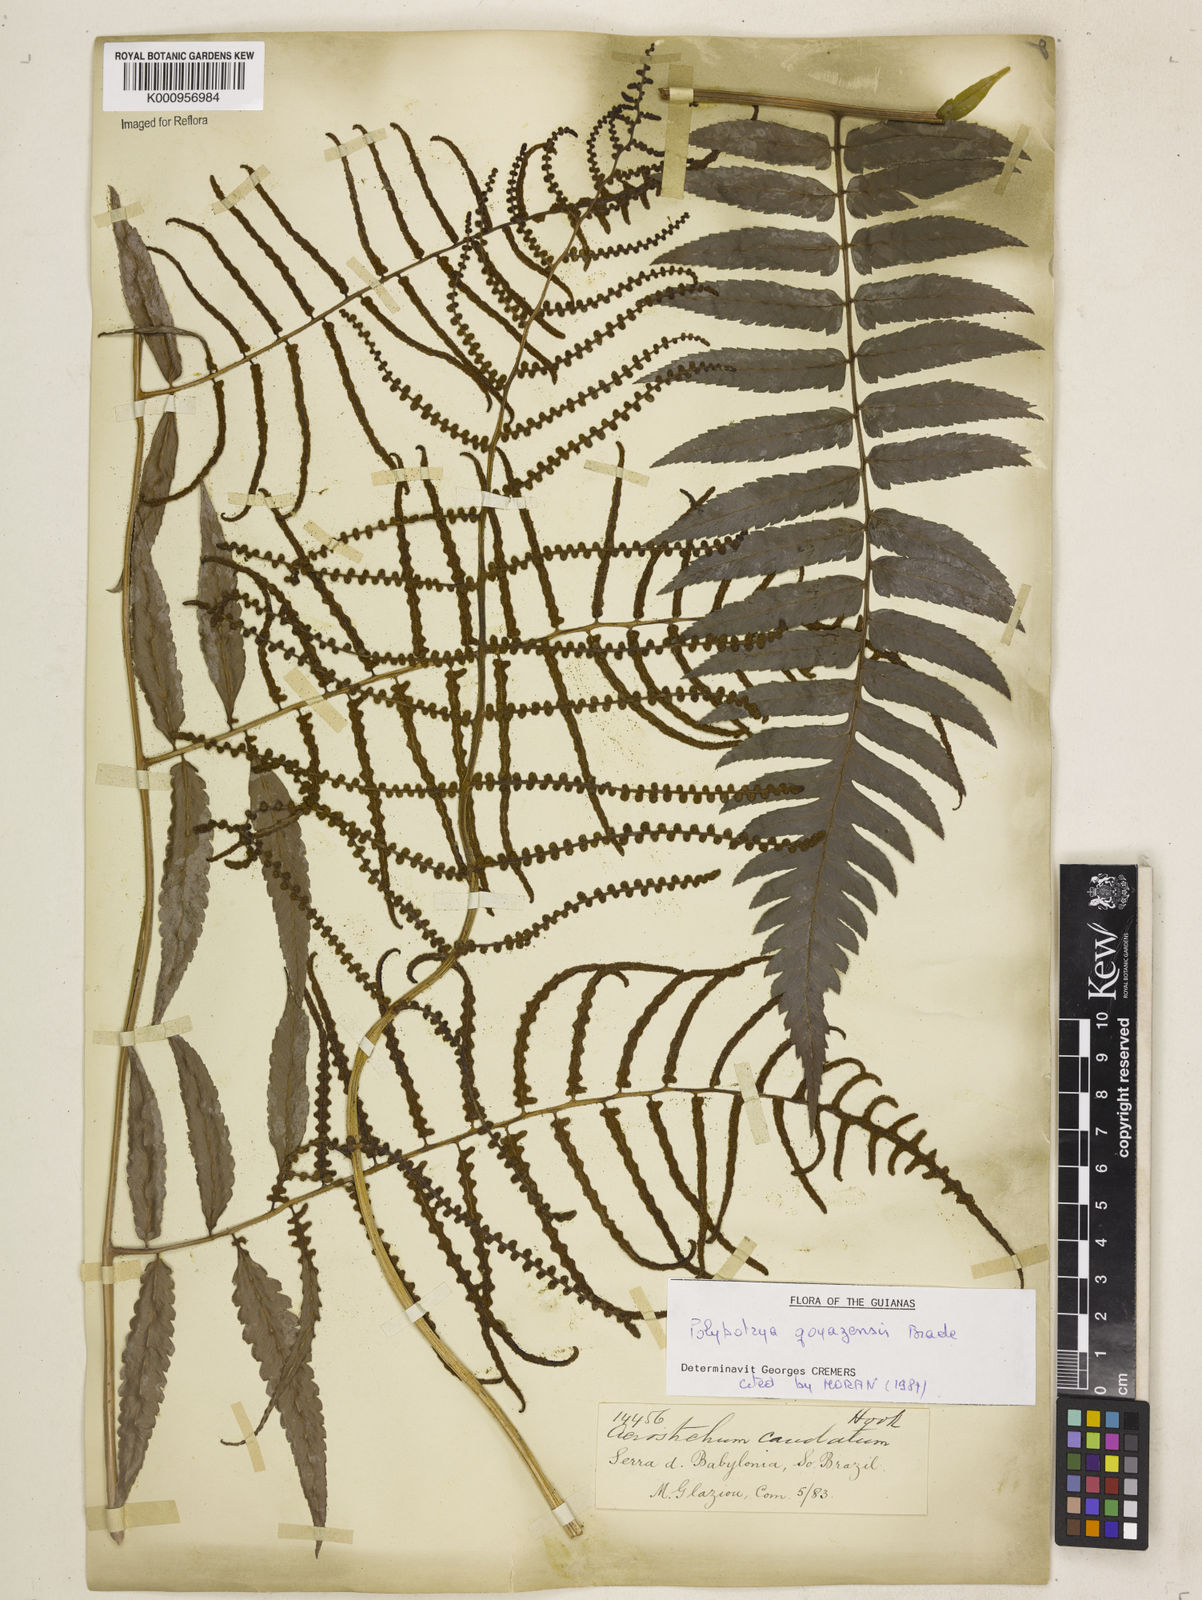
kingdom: Plantae
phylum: Tracheophyta
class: Polypodiopsida
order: Polypodiales
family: Dryopteridaceae
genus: Polybotrya
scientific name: Polybotrya goyazensis
